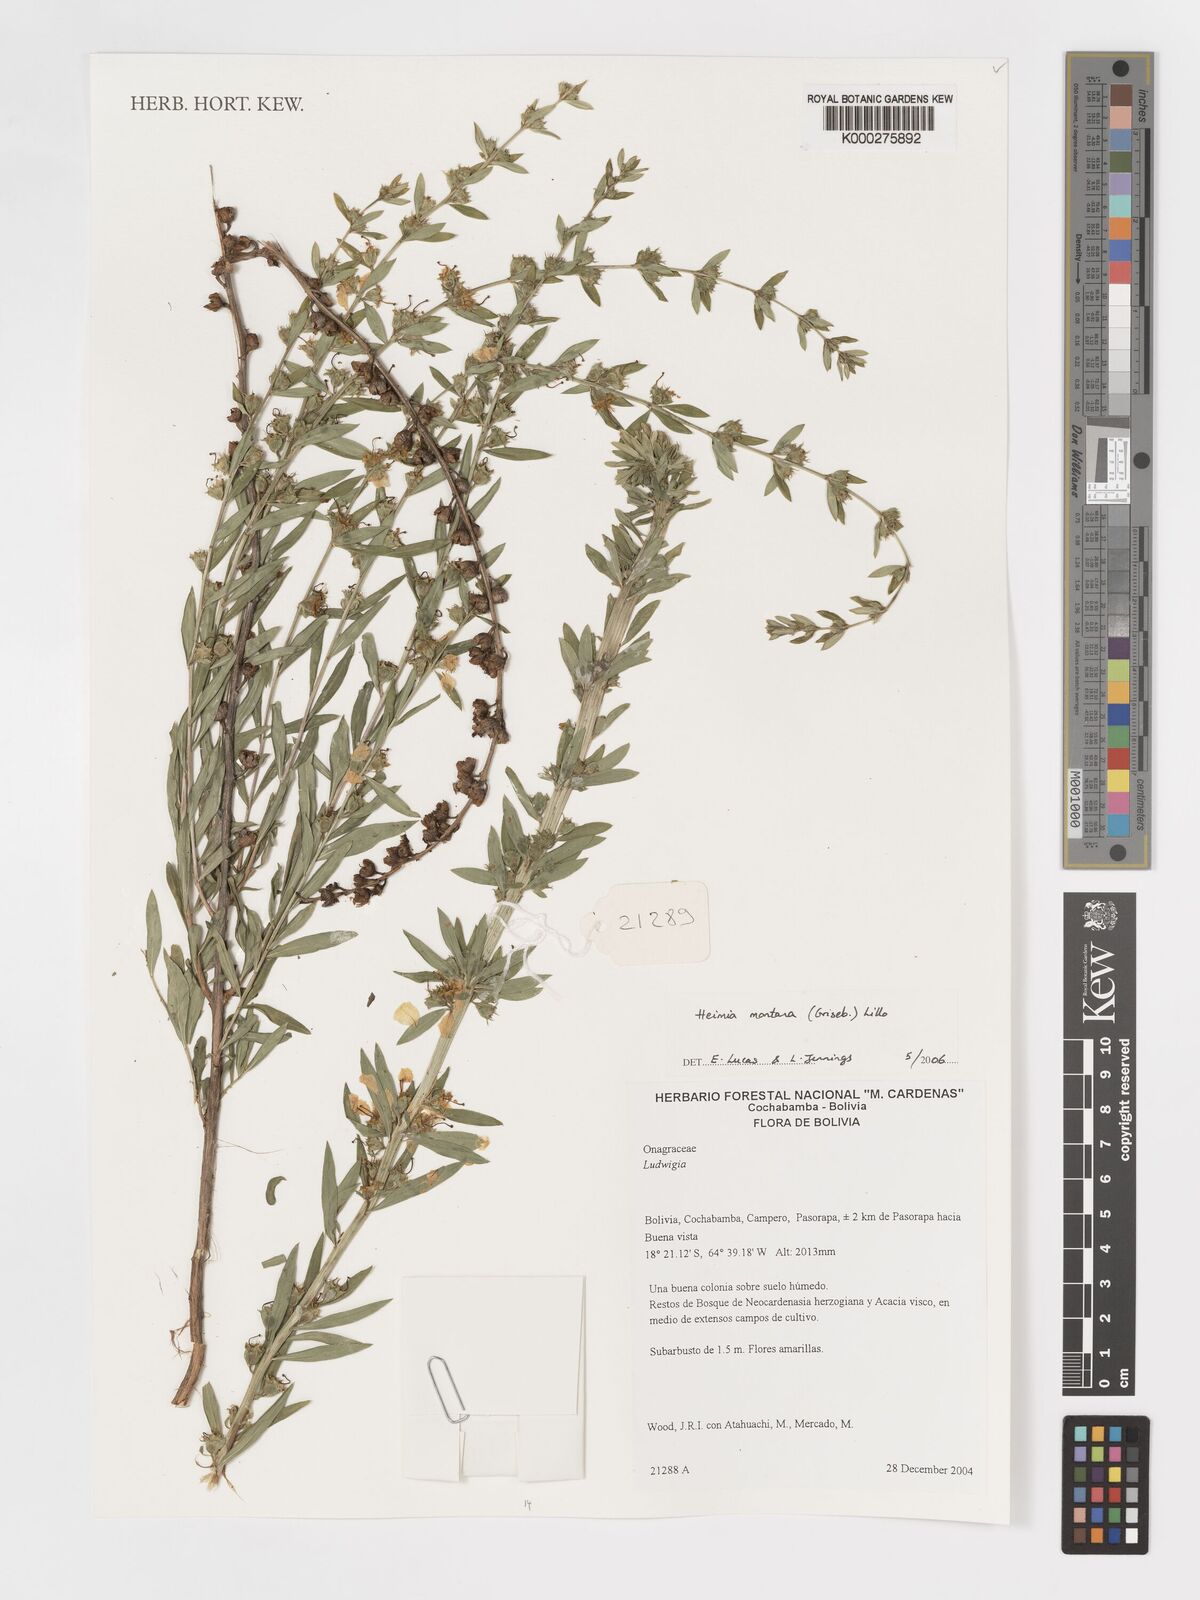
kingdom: Plantae
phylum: Tracheophyta
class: Magnoliopsida
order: Myrtales
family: Lythraceae
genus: Heimia
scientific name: Heimia montana
